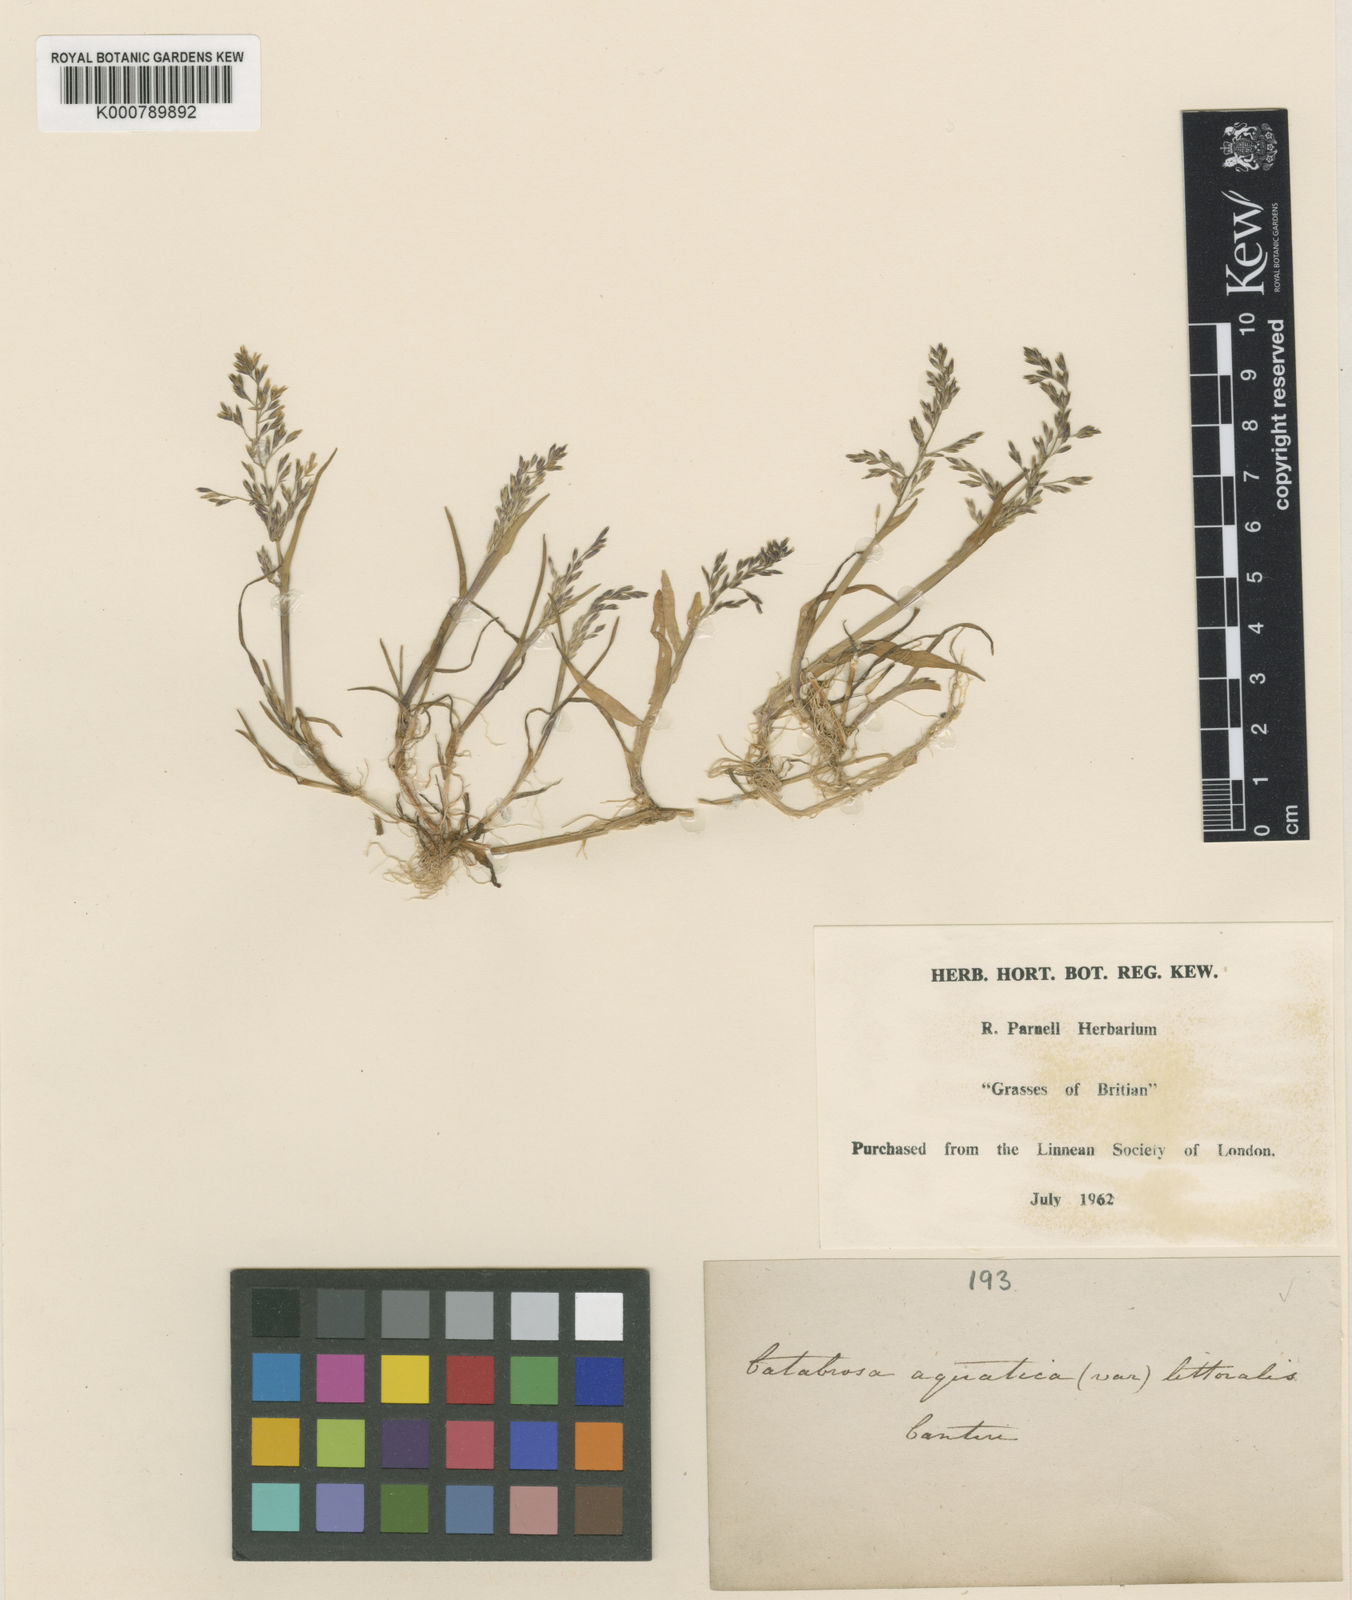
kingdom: Plantae
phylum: Tracheophyta
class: Liliopsida
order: Poales
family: Poaceae
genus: Catabrosa
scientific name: Catabrosa aquatica
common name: Whorl-grass
